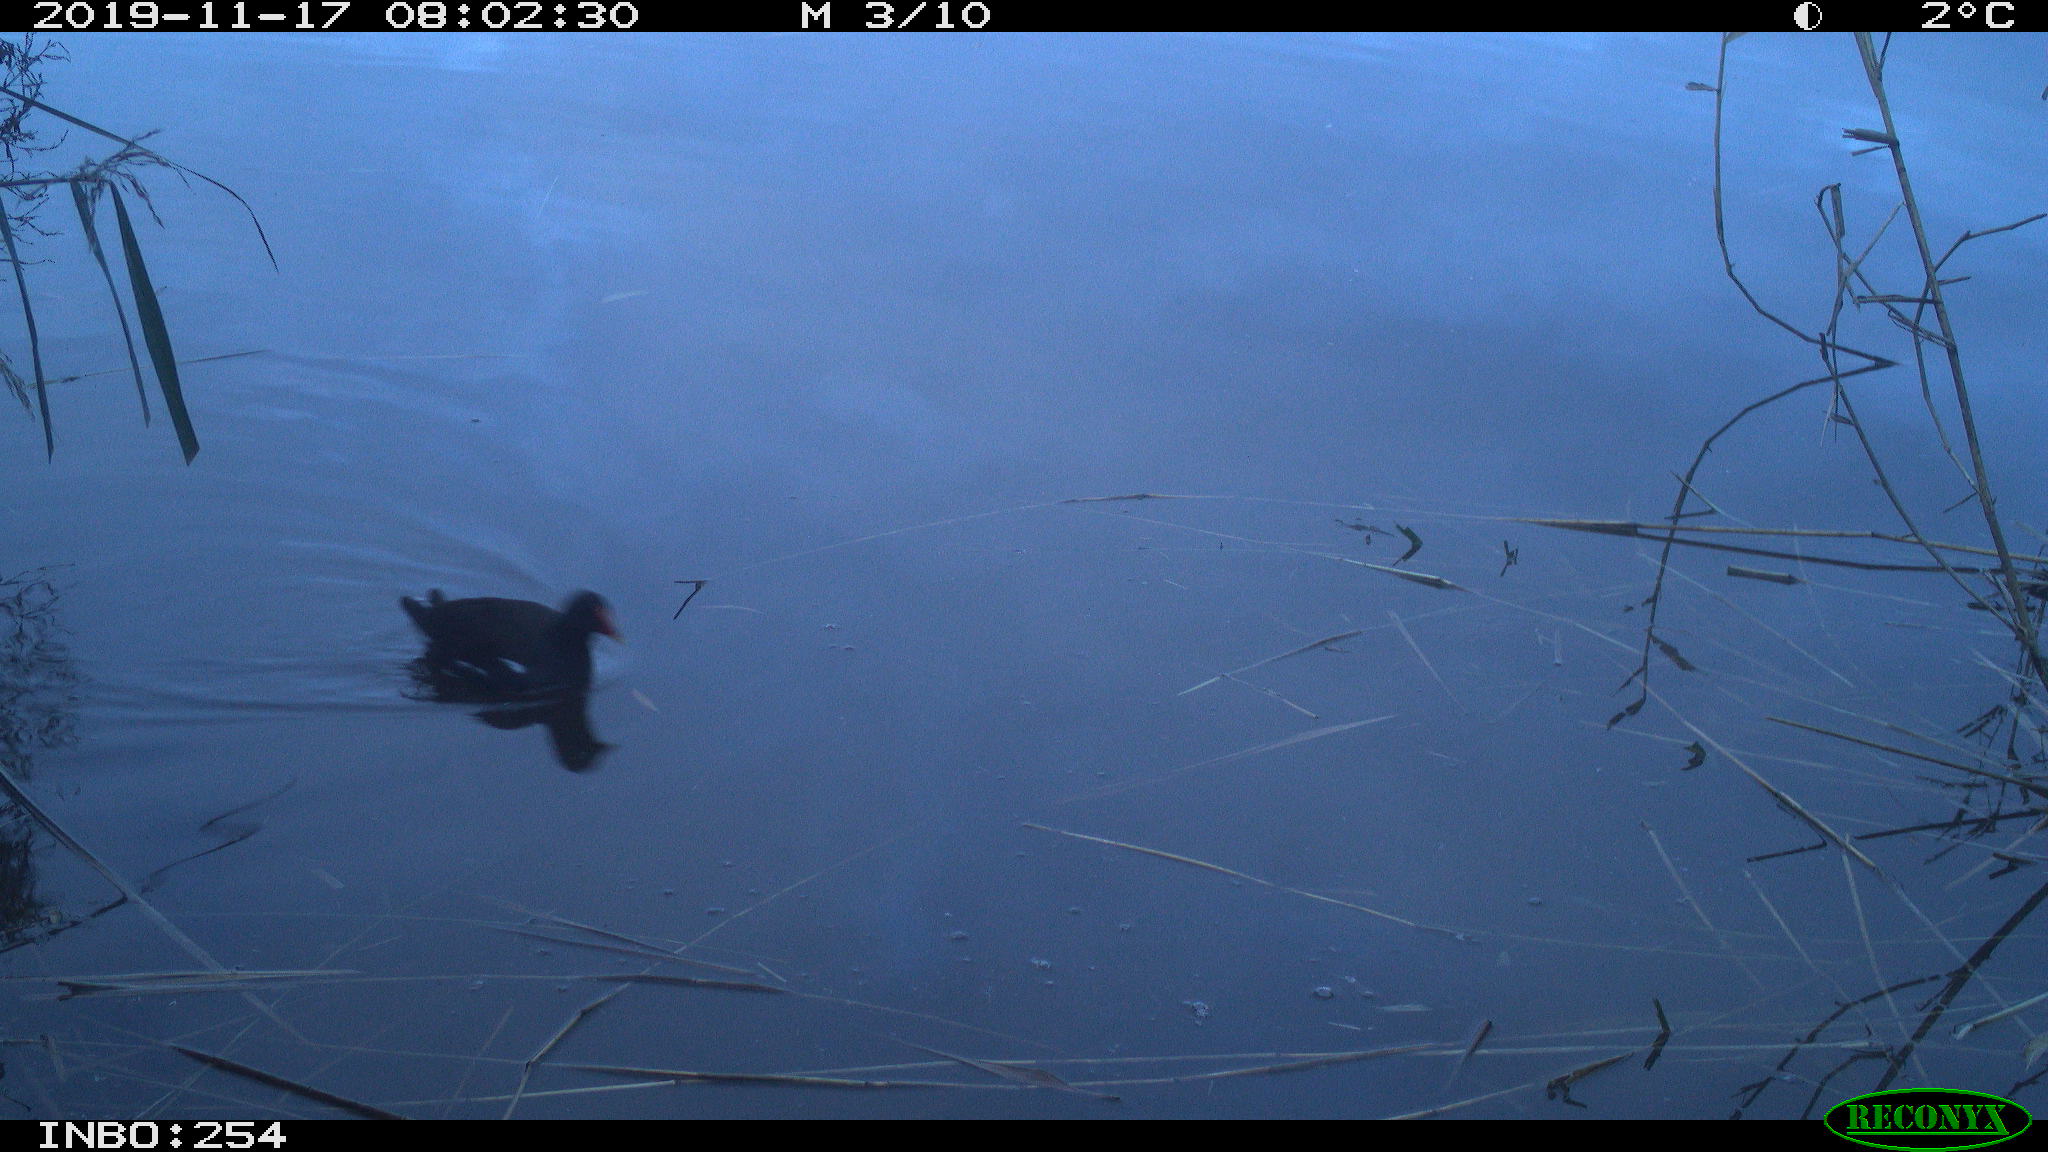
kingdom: Animalia
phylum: Chordata
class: Aves
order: Gruiformes
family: Rallidae
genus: Gallinula
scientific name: Gallinula chloropus
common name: Common moorhen
